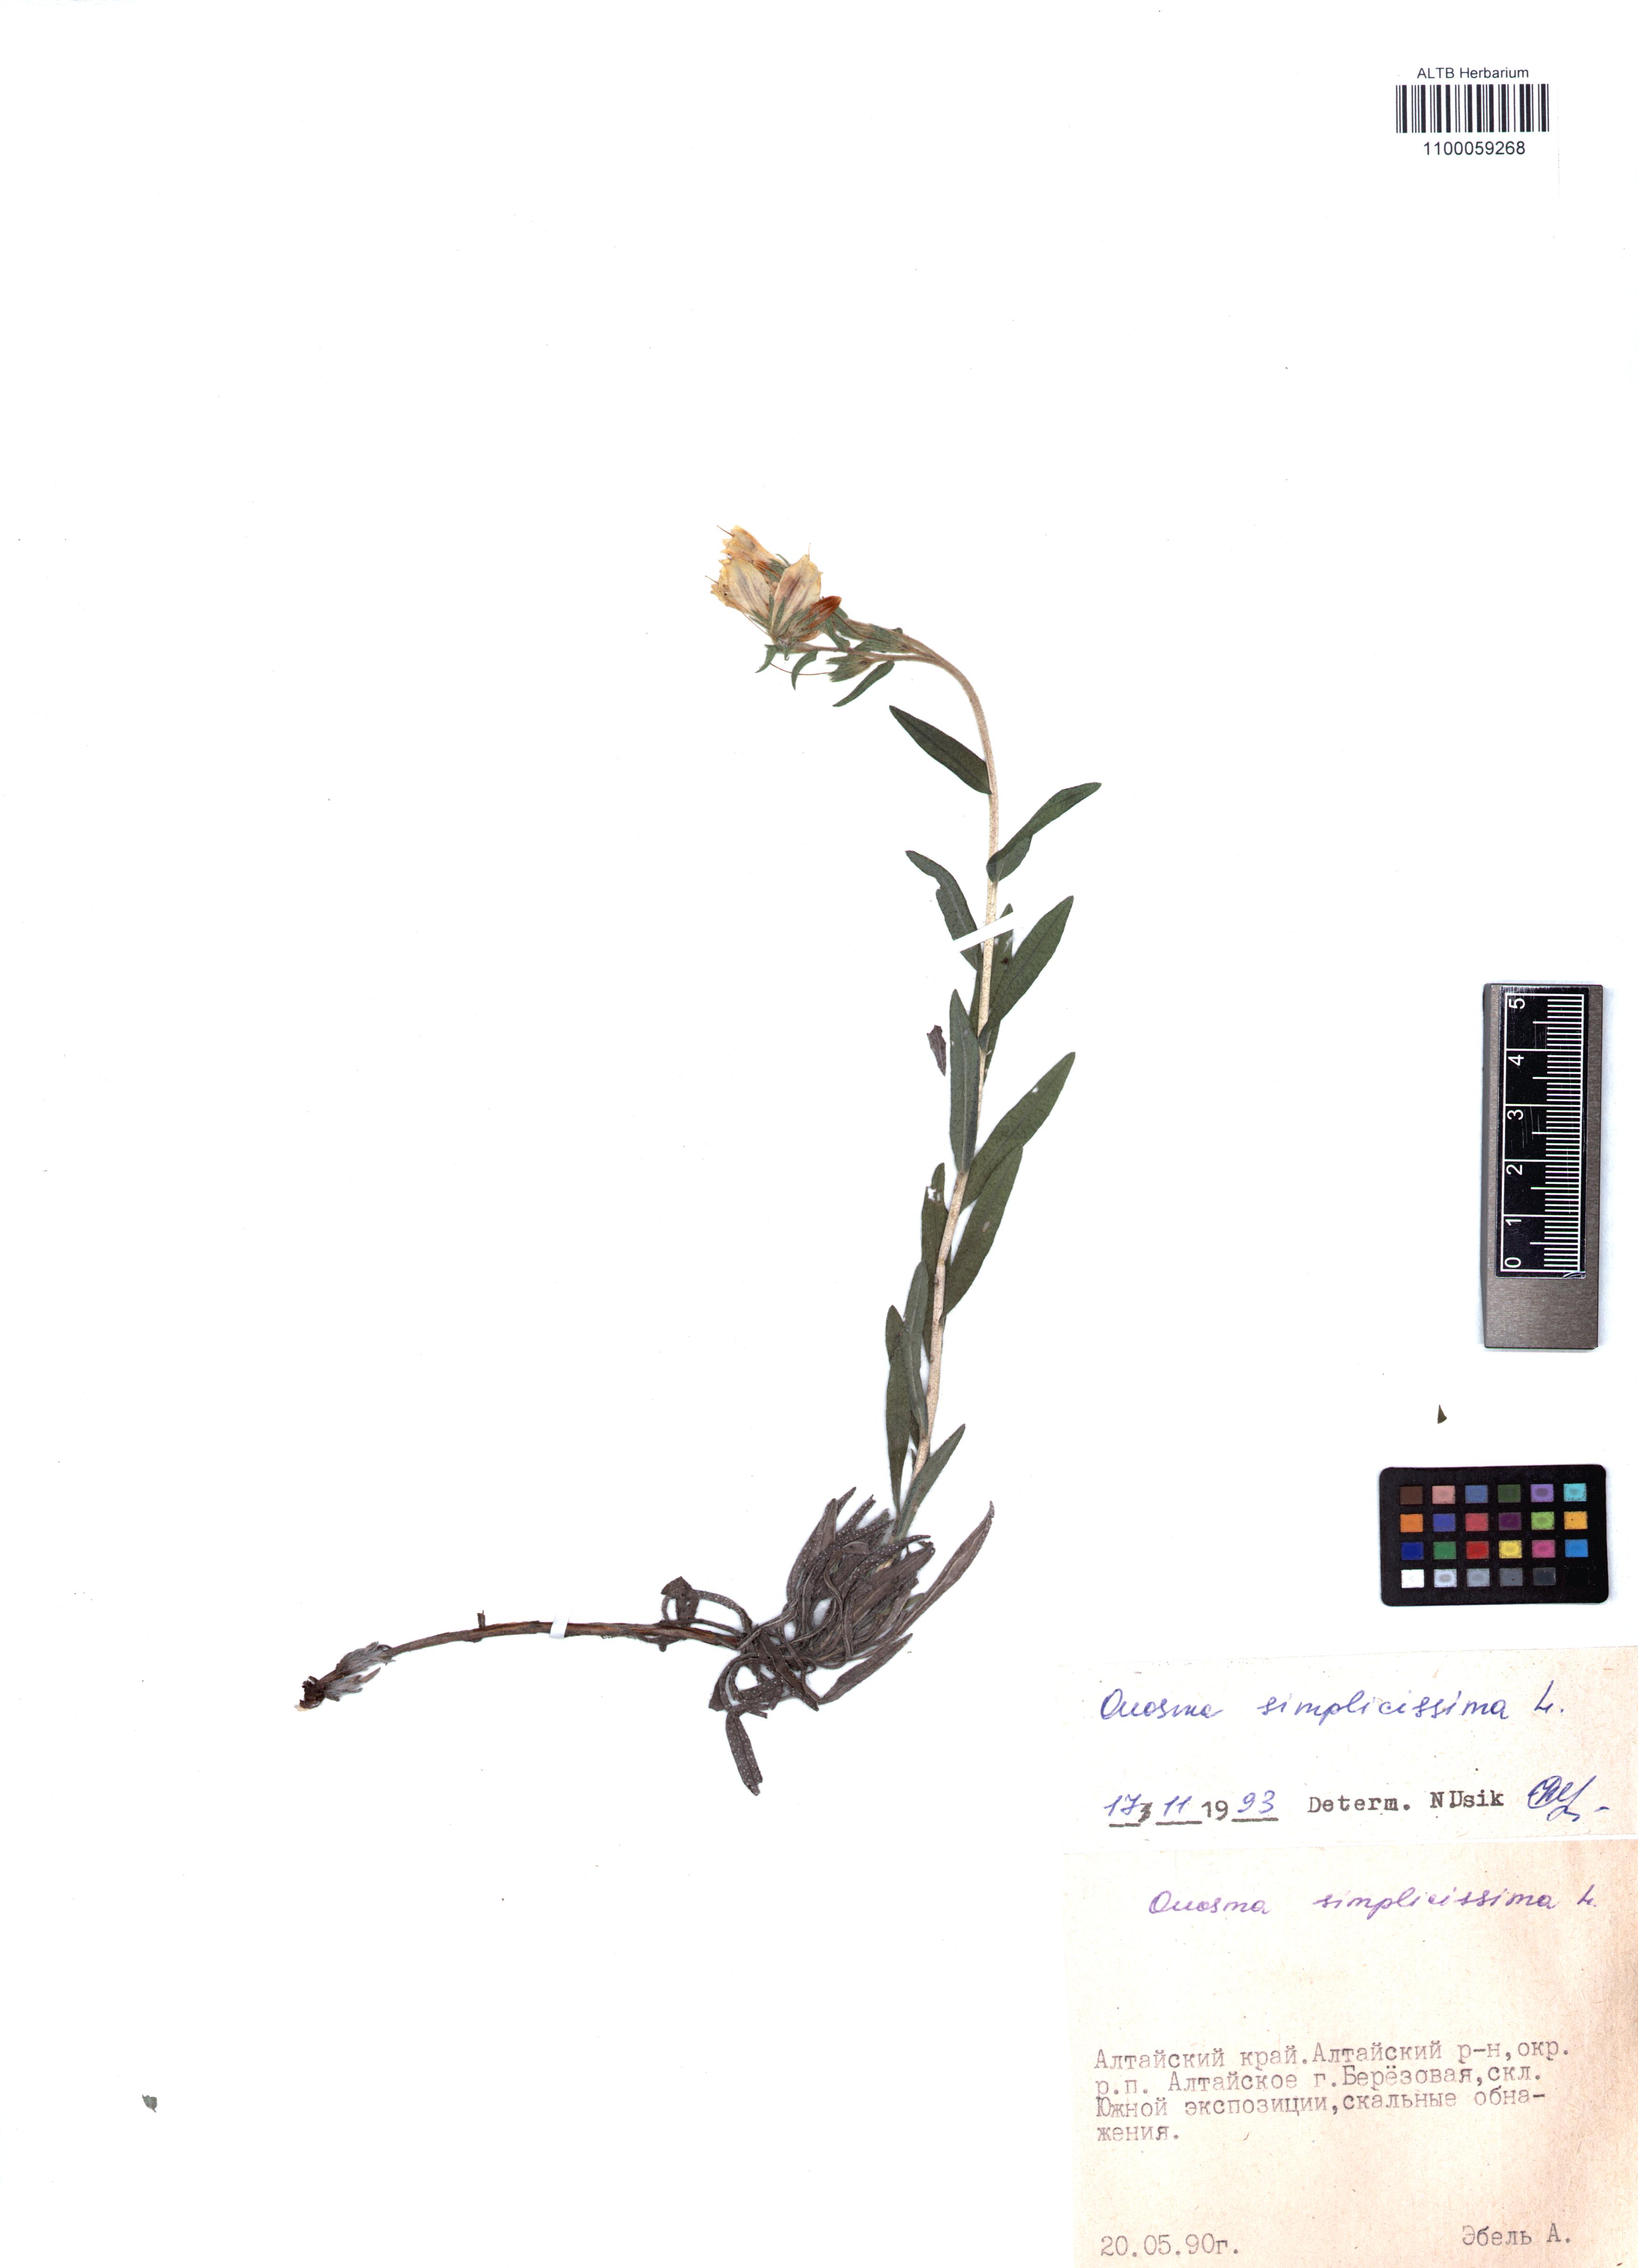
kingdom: Plantae
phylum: Tracheophyta
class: Magnoliopsida
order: Boraginales
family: Boraginaceae
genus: Onosma
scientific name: Onosma simplicissima
